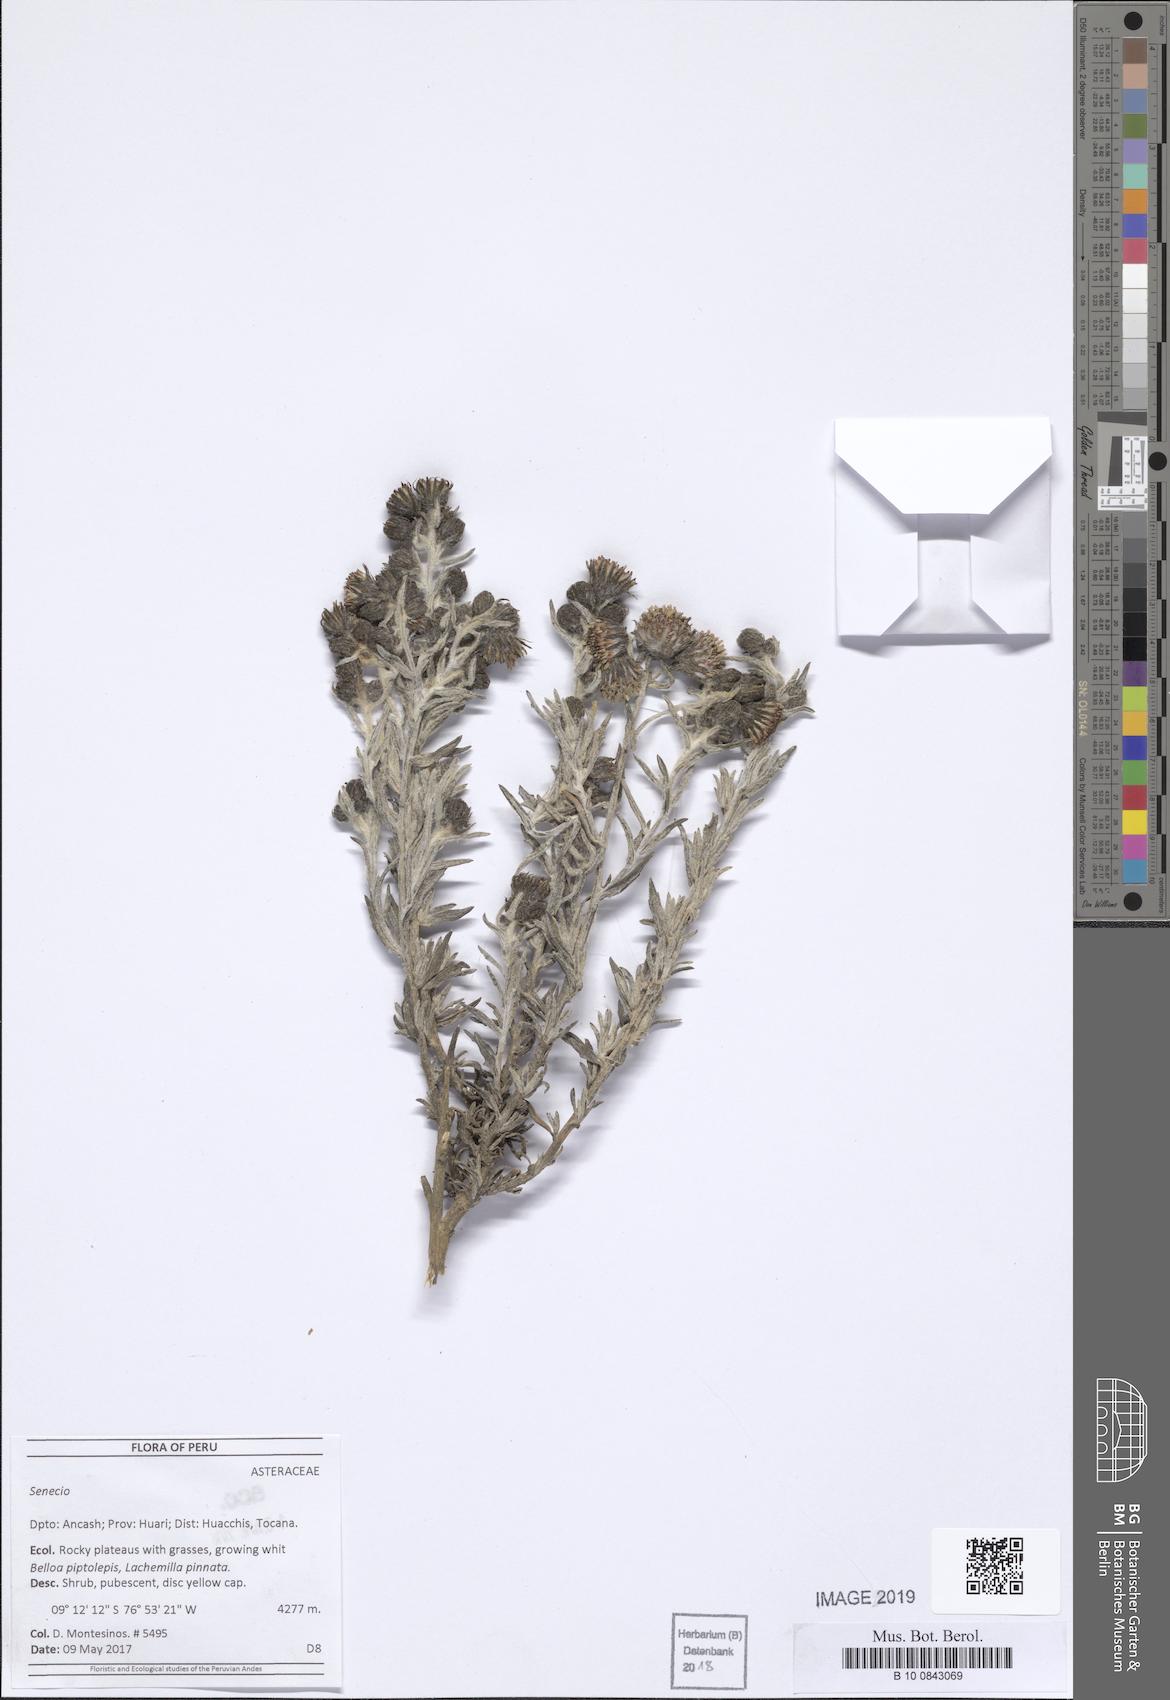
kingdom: Plantae
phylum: Tracheophyta
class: Magnoliopsida
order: Asterales
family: Asteraceae
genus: Senecio
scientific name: Senecio canopurpureus
